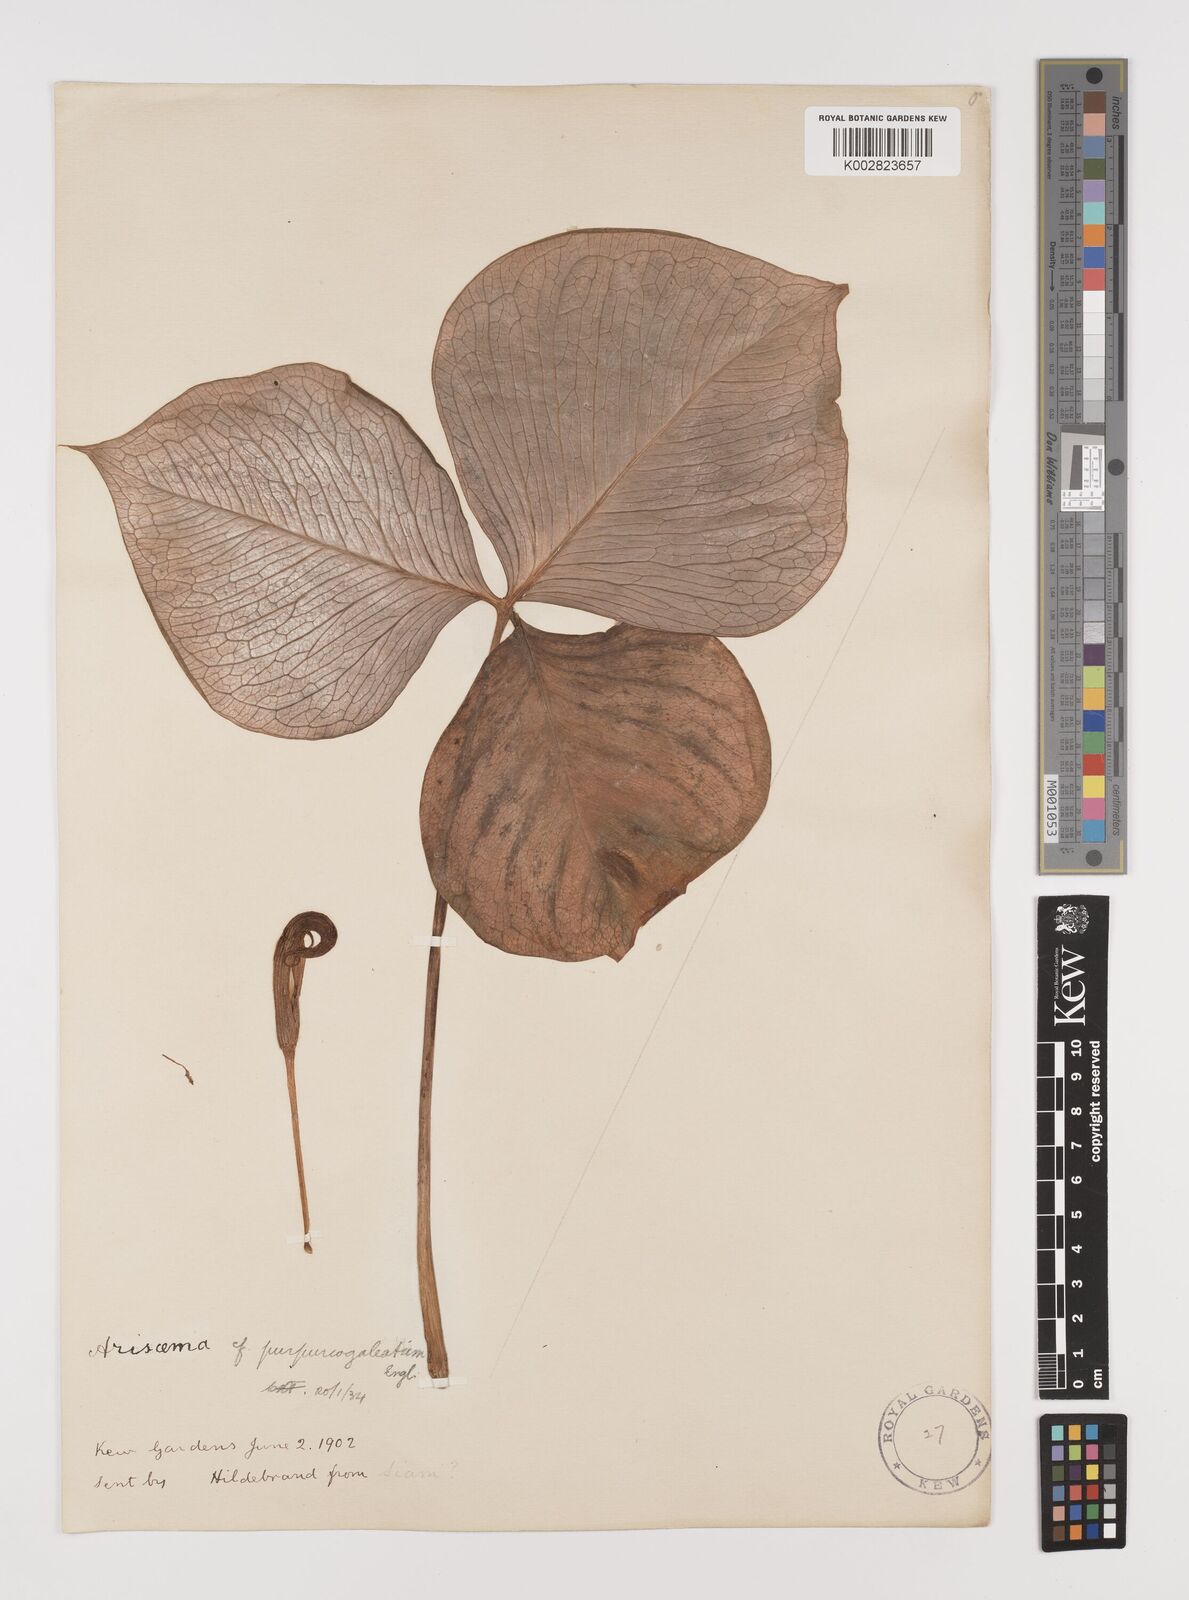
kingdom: Plantae
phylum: Tracheophyta
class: Liliopsida
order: Alismatales
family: Araceae
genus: Arisaema
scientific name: Arisaema
